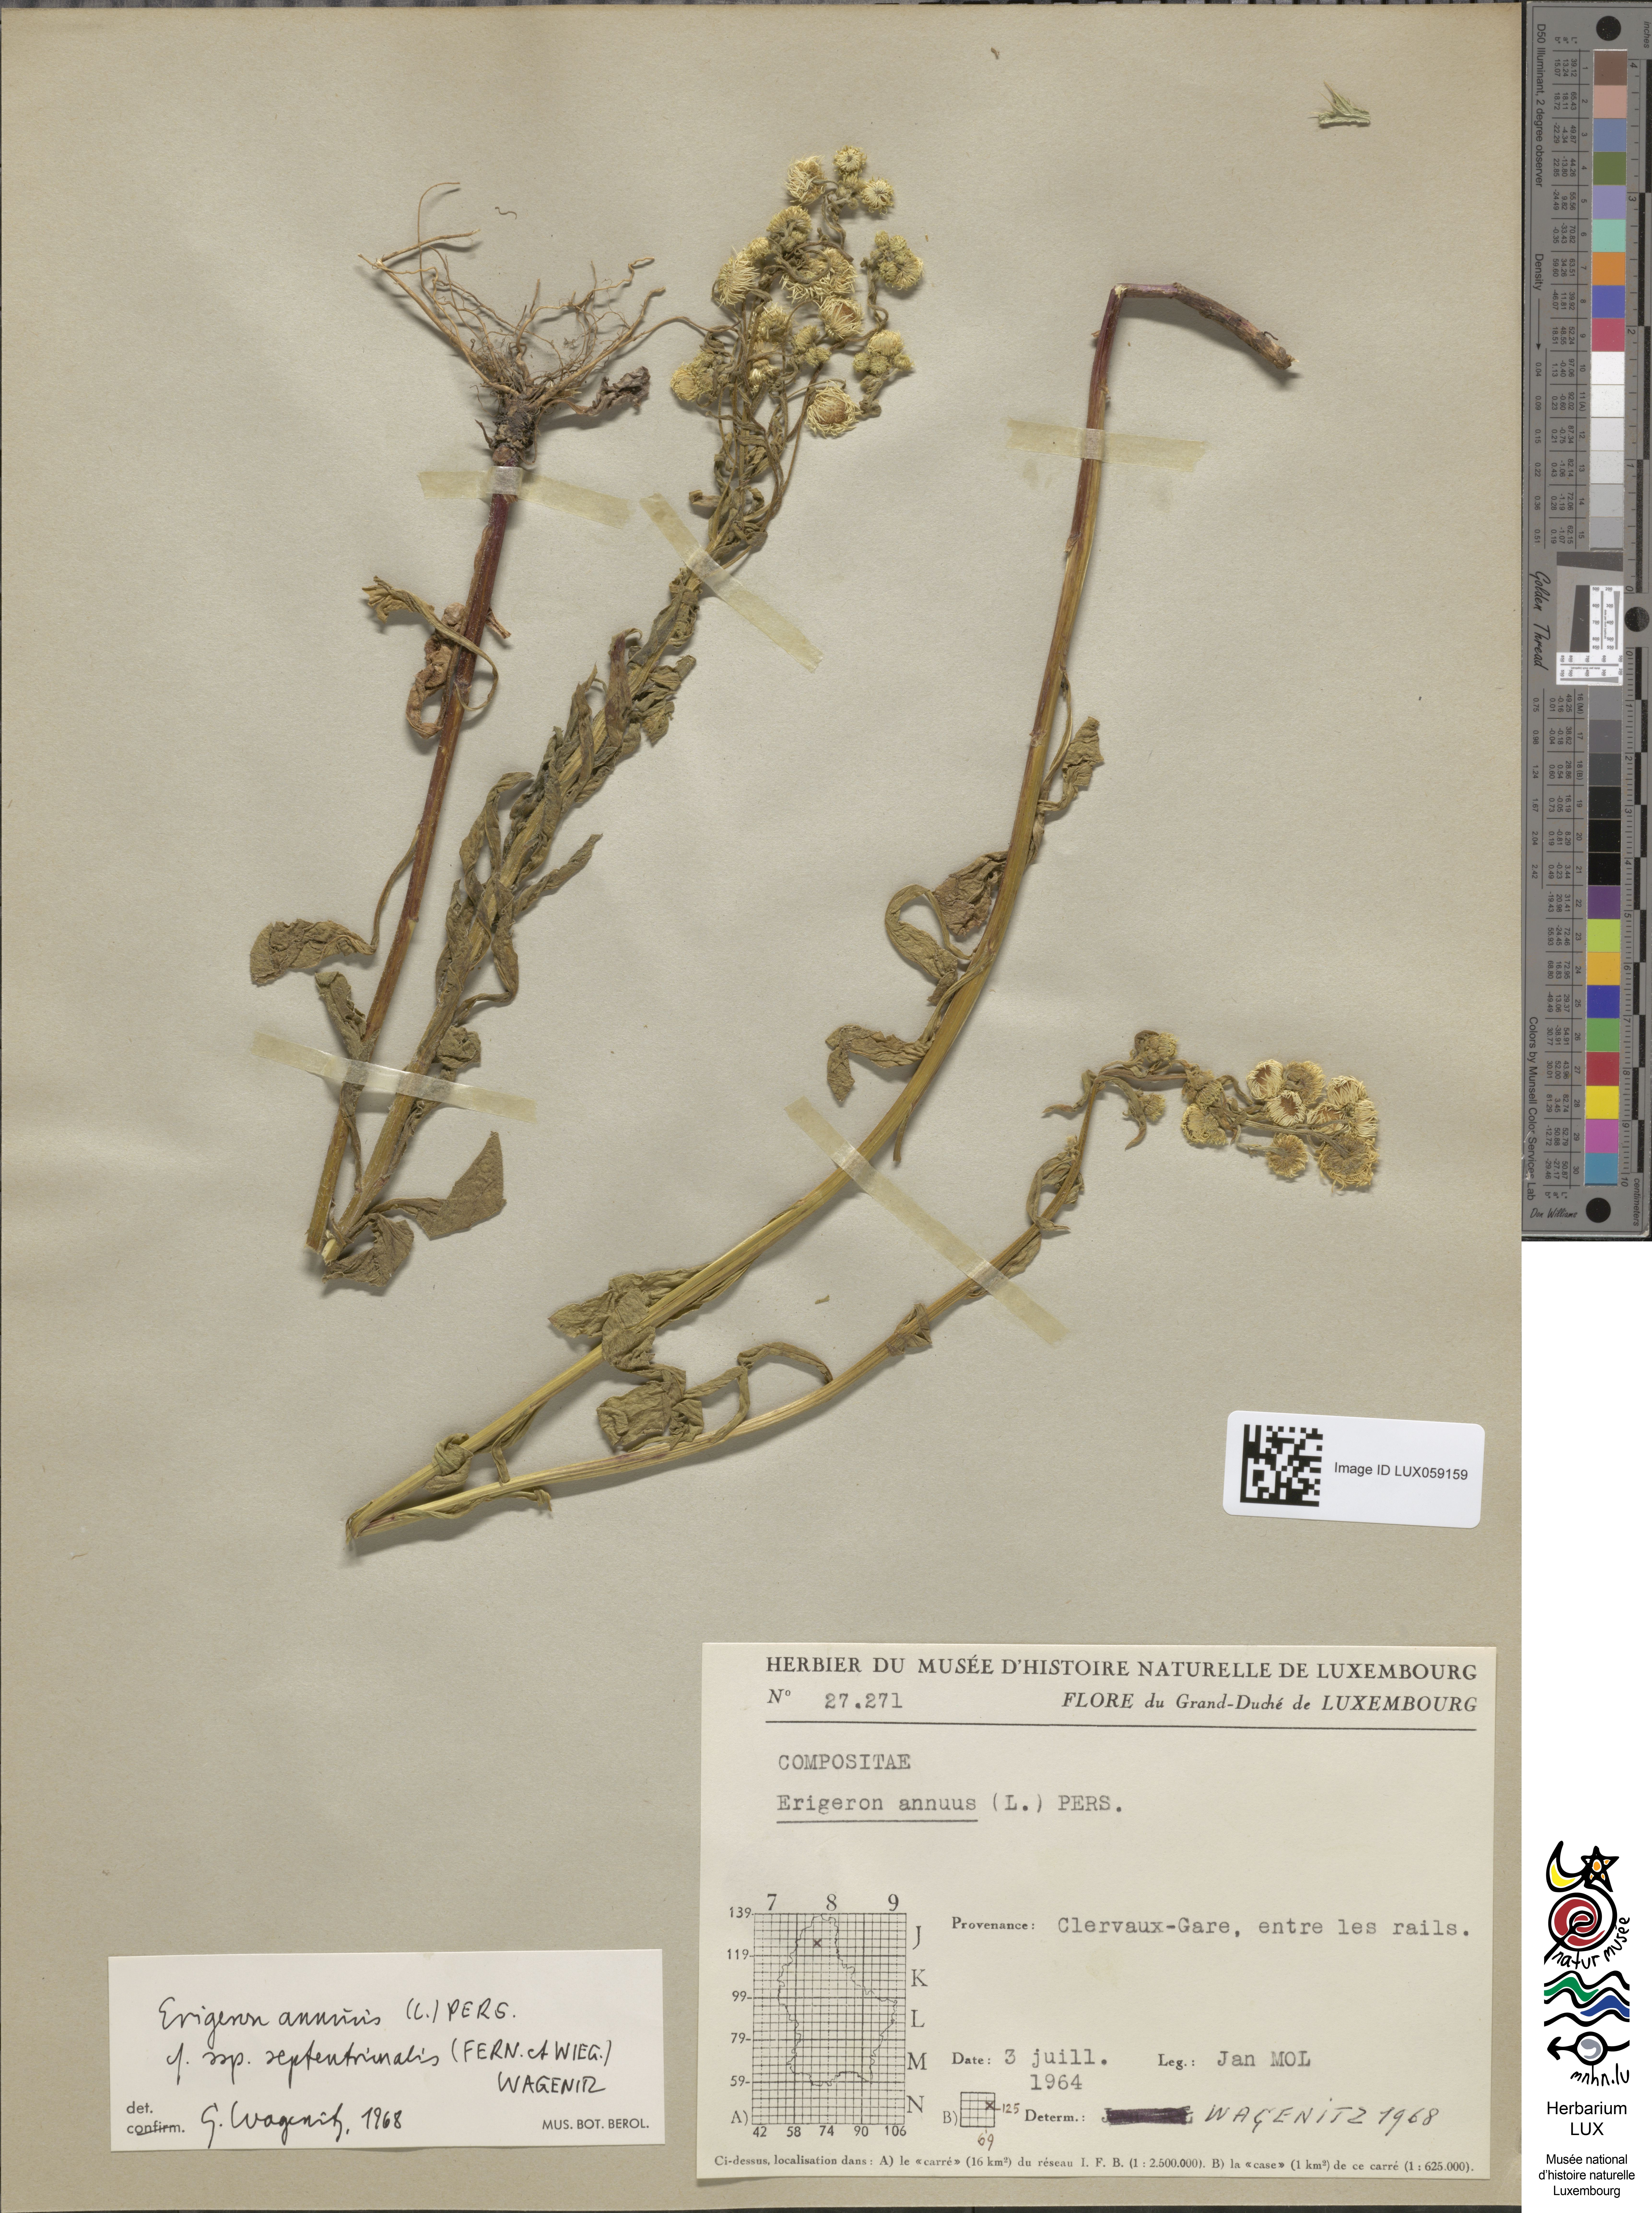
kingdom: Plantae
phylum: Tracheophyta
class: Magnoliopsida
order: Asterales
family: Asteraceae
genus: Erigeron
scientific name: Erigeron annuus
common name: Tall fleabane
